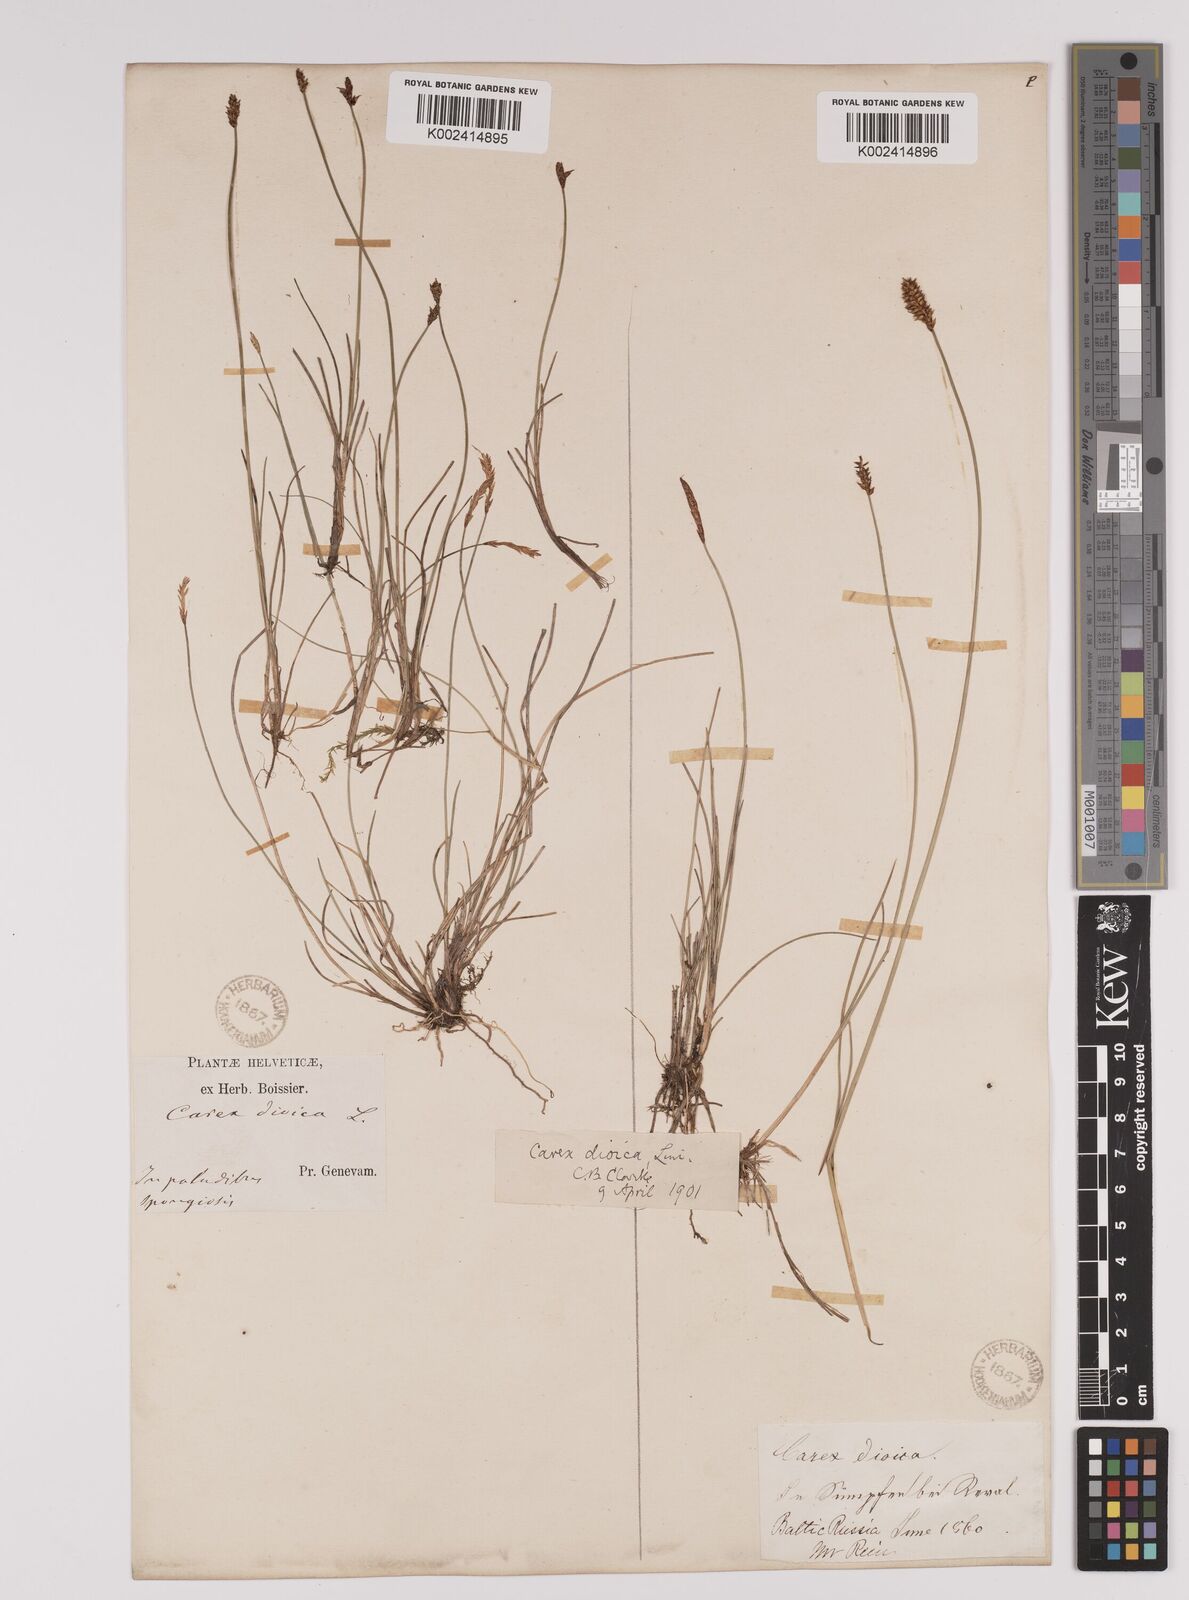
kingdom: Plantae
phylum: Tracheophyta
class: Liliopsida
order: Poales
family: Cyperaceae
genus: Carex
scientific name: Carex dioica
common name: Dioecious sedge
